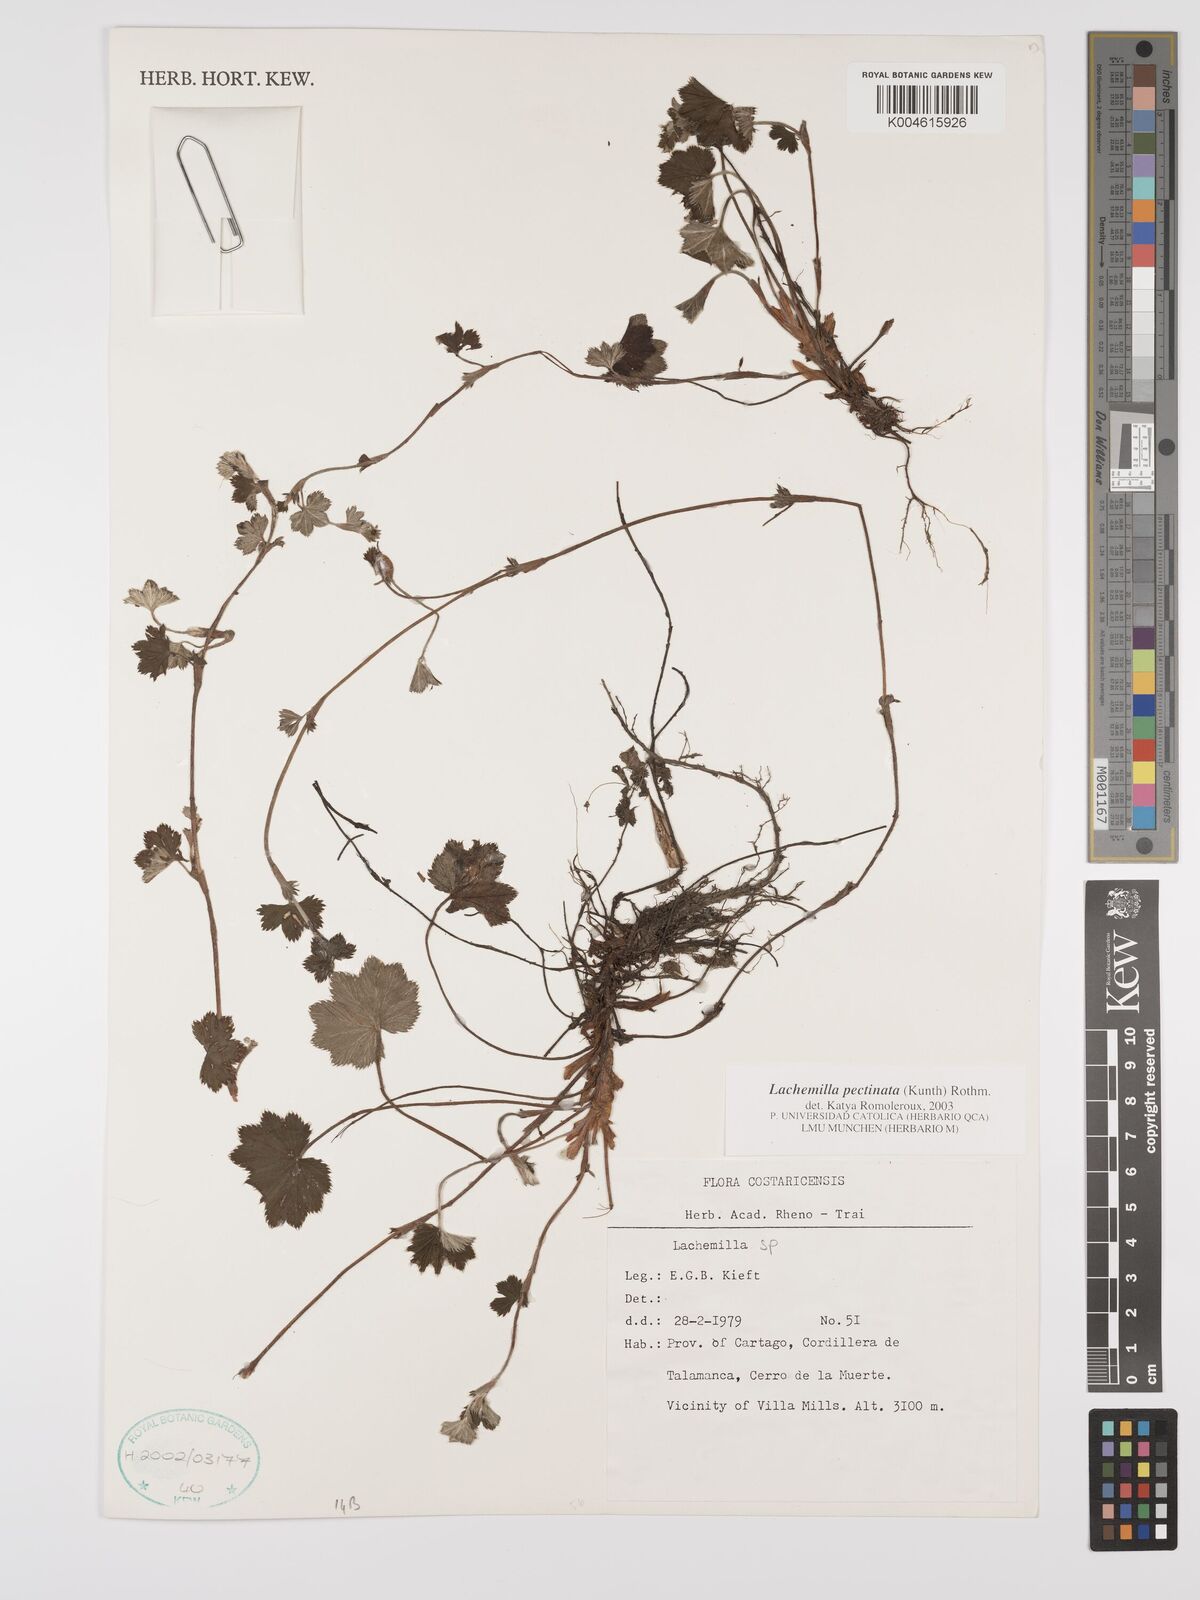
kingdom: Plantae
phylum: Tracheophyta
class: Magnoliopsida
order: Rosales
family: Rosaceae
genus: Lachemilla
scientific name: Lachemilla pectinata
